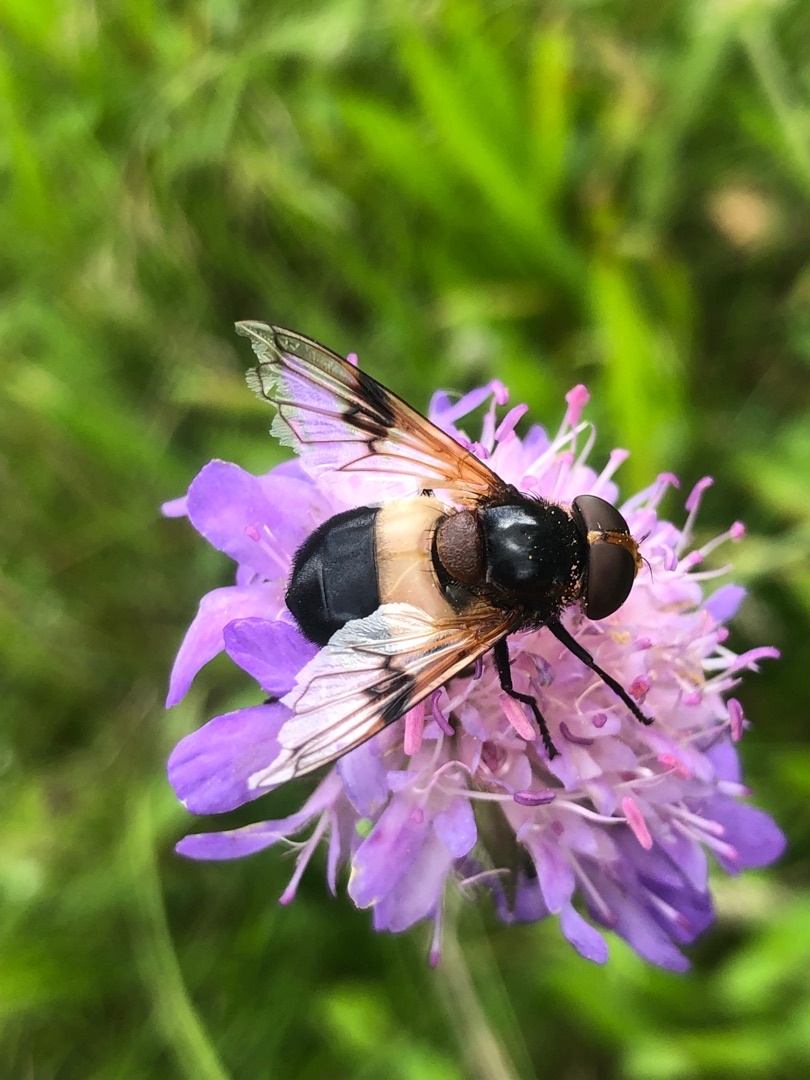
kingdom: Animalia
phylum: Arthropoda
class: Insecta
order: Diptera
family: Syrphidae
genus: Volucella
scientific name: Volucella pellucens
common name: Hvidbåndet humlesvirreflue
